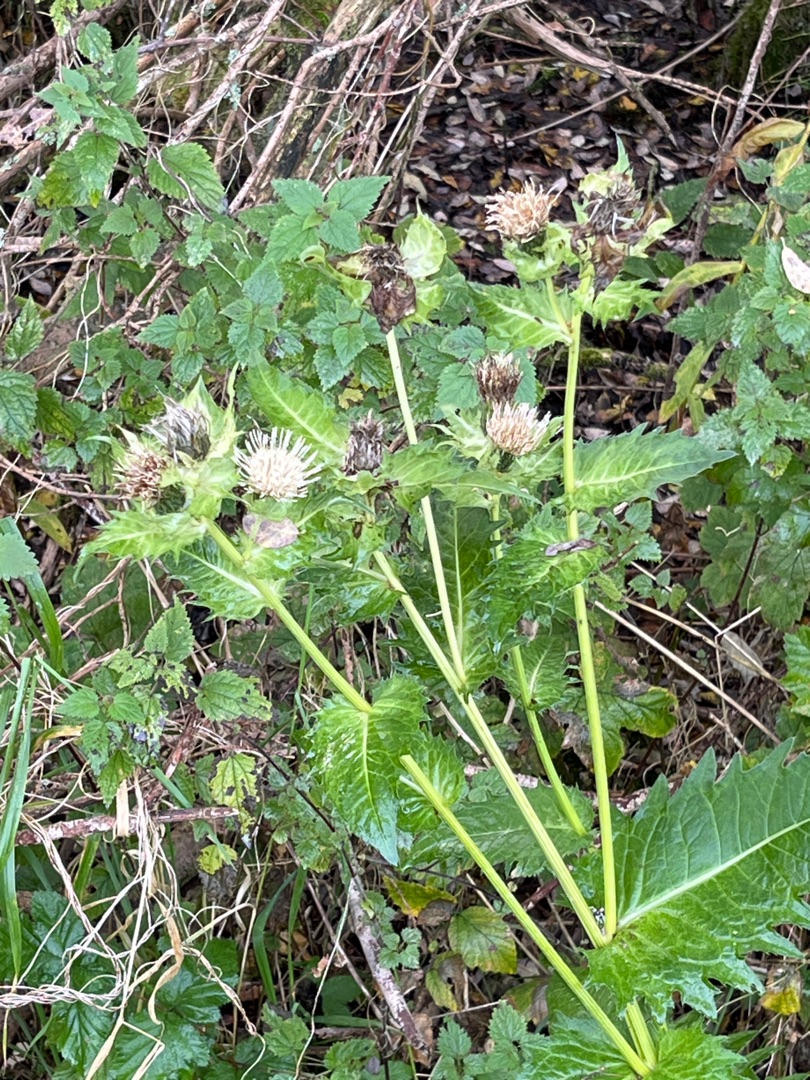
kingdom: Plantae
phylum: Tracheophyta
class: Magnoliopsida
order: Asterales
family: Asteraceae
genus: Cirsium
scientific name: Cirsium oleraceum
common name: Kål-tidsel
